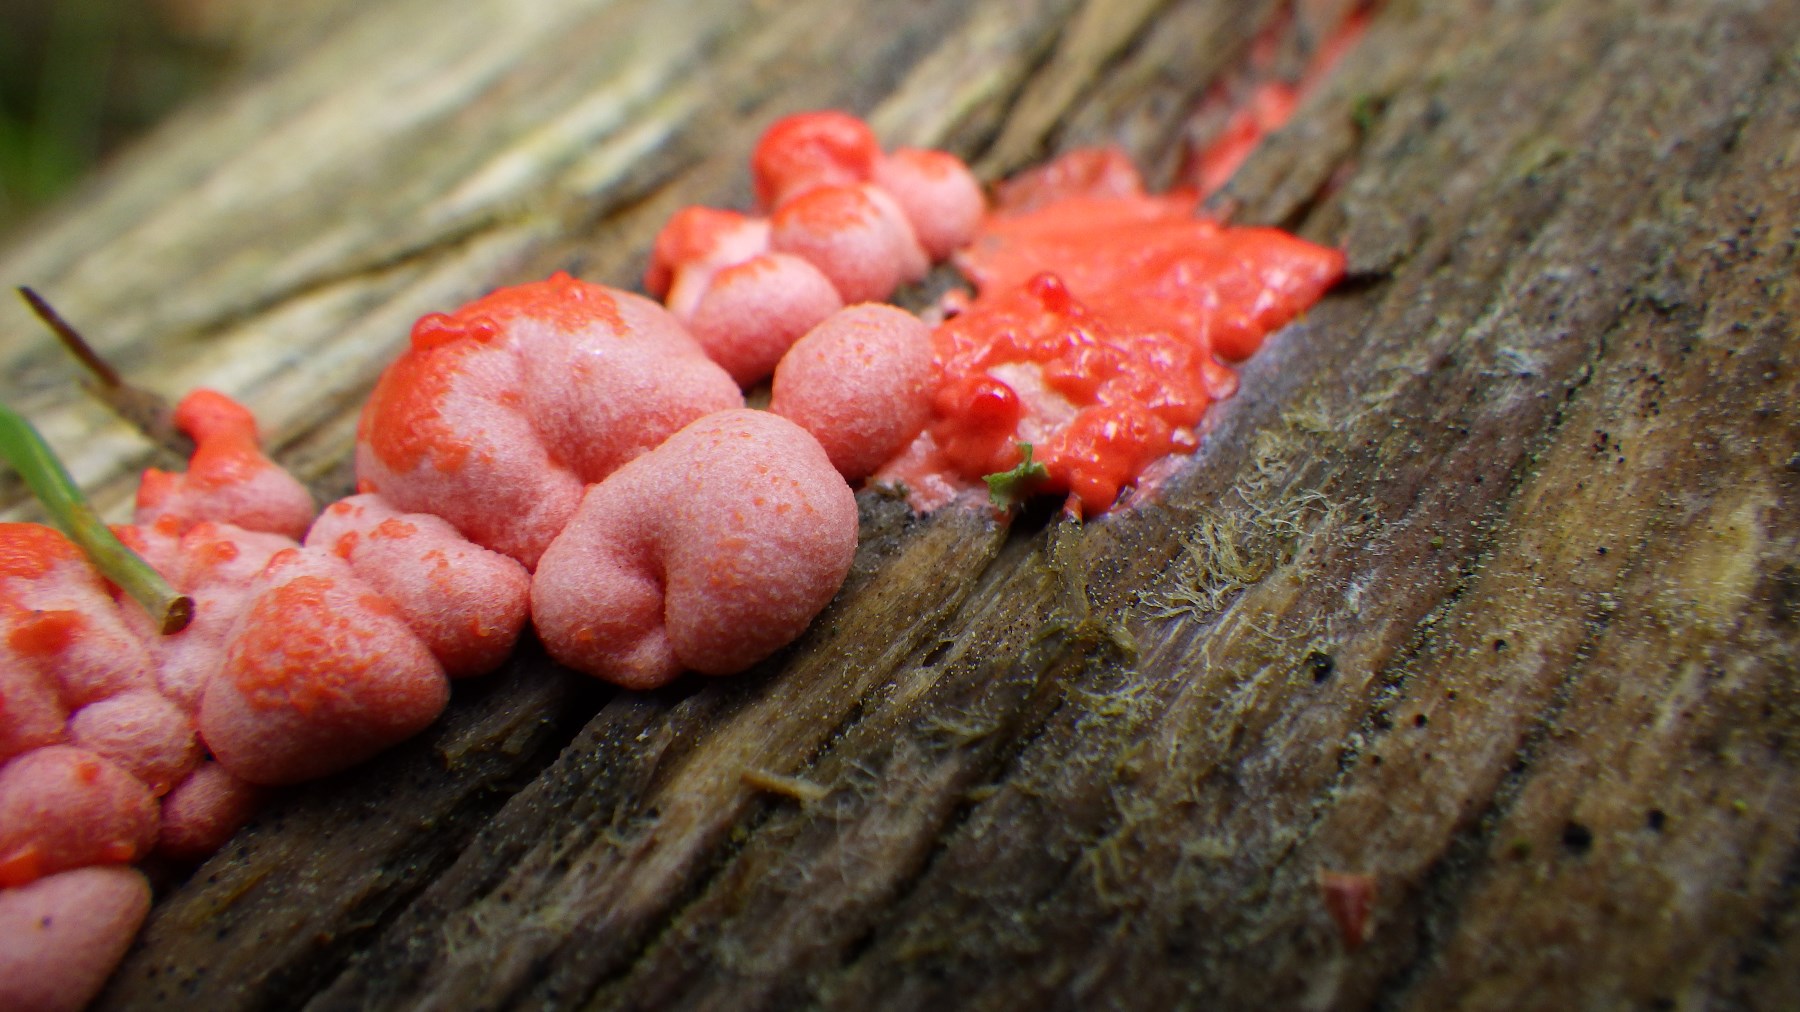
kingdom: Protozoa
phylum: Mycetozoa
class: Myxomycetes
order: Cribrariales
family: Tubiferaceae
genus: Lycogala
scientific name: Lycogala epidendrum
